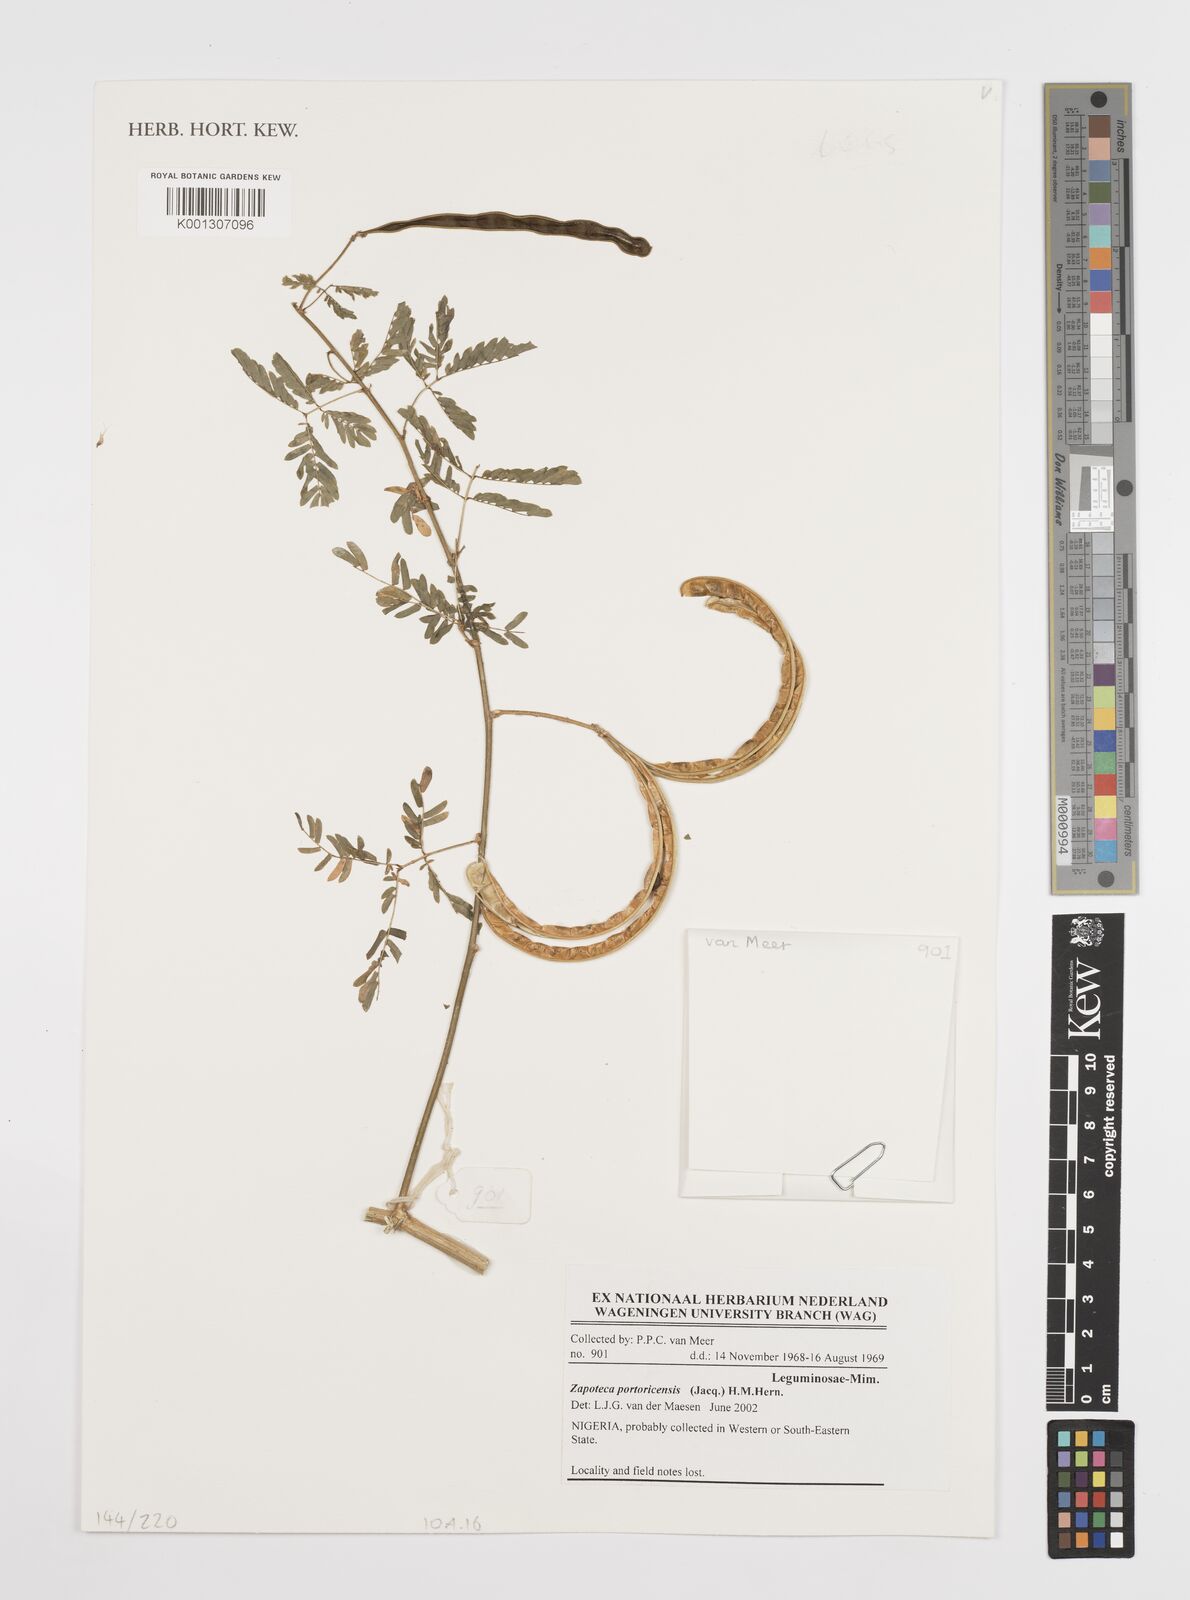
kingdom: Plantae
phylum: Tracheophyta
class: Magnoliopsida
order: Fabales
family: Fabaceae
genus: Zapoteca
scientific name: Zapoteca portoricensis
